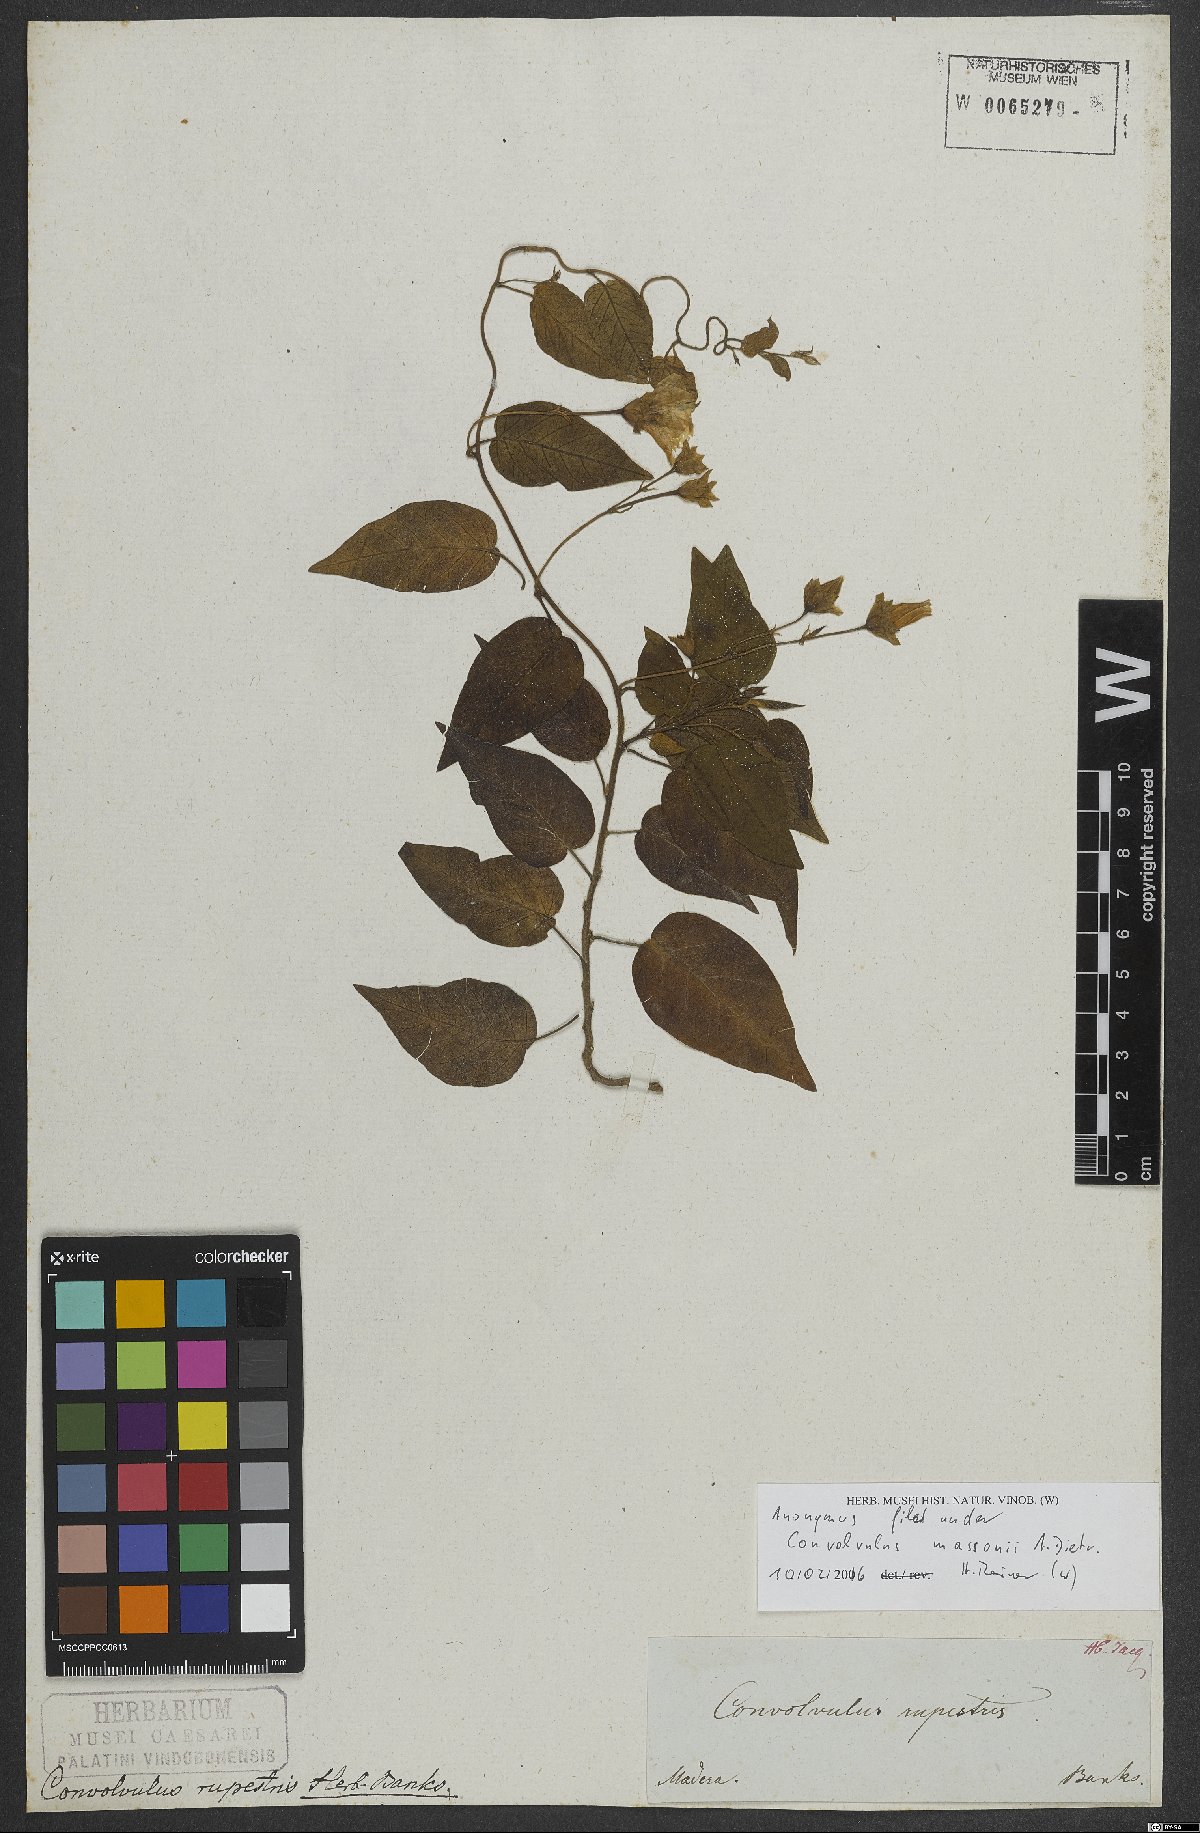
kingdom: Plantae
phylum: Tracheophyta
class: Magnoliopsida
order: Solanales
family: Convolvulaceae
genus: Convolvulus
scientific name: Convolvulus massonii
